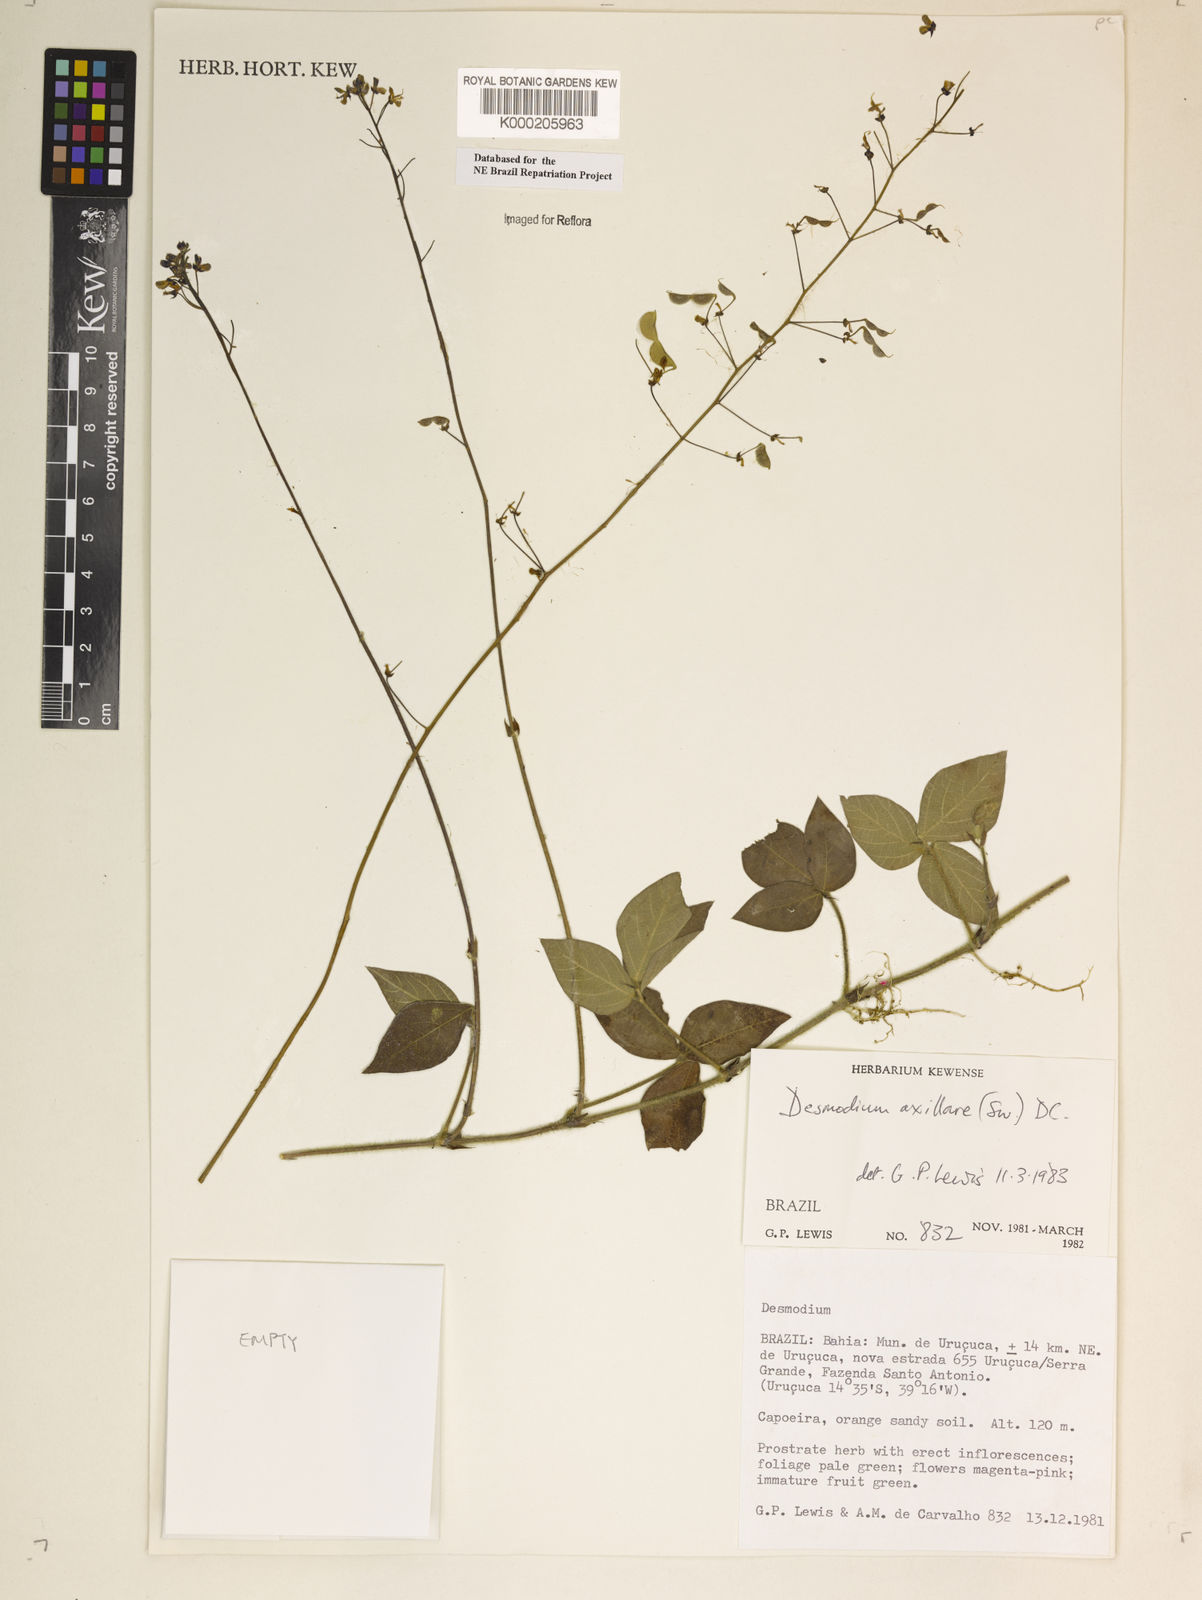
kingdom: Plantae
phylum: Tracheophyta
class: Magnoliopsida
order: Fabales
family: Fabaceae
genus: Desmodium
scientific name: Desmodium axillare
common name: Wire with
